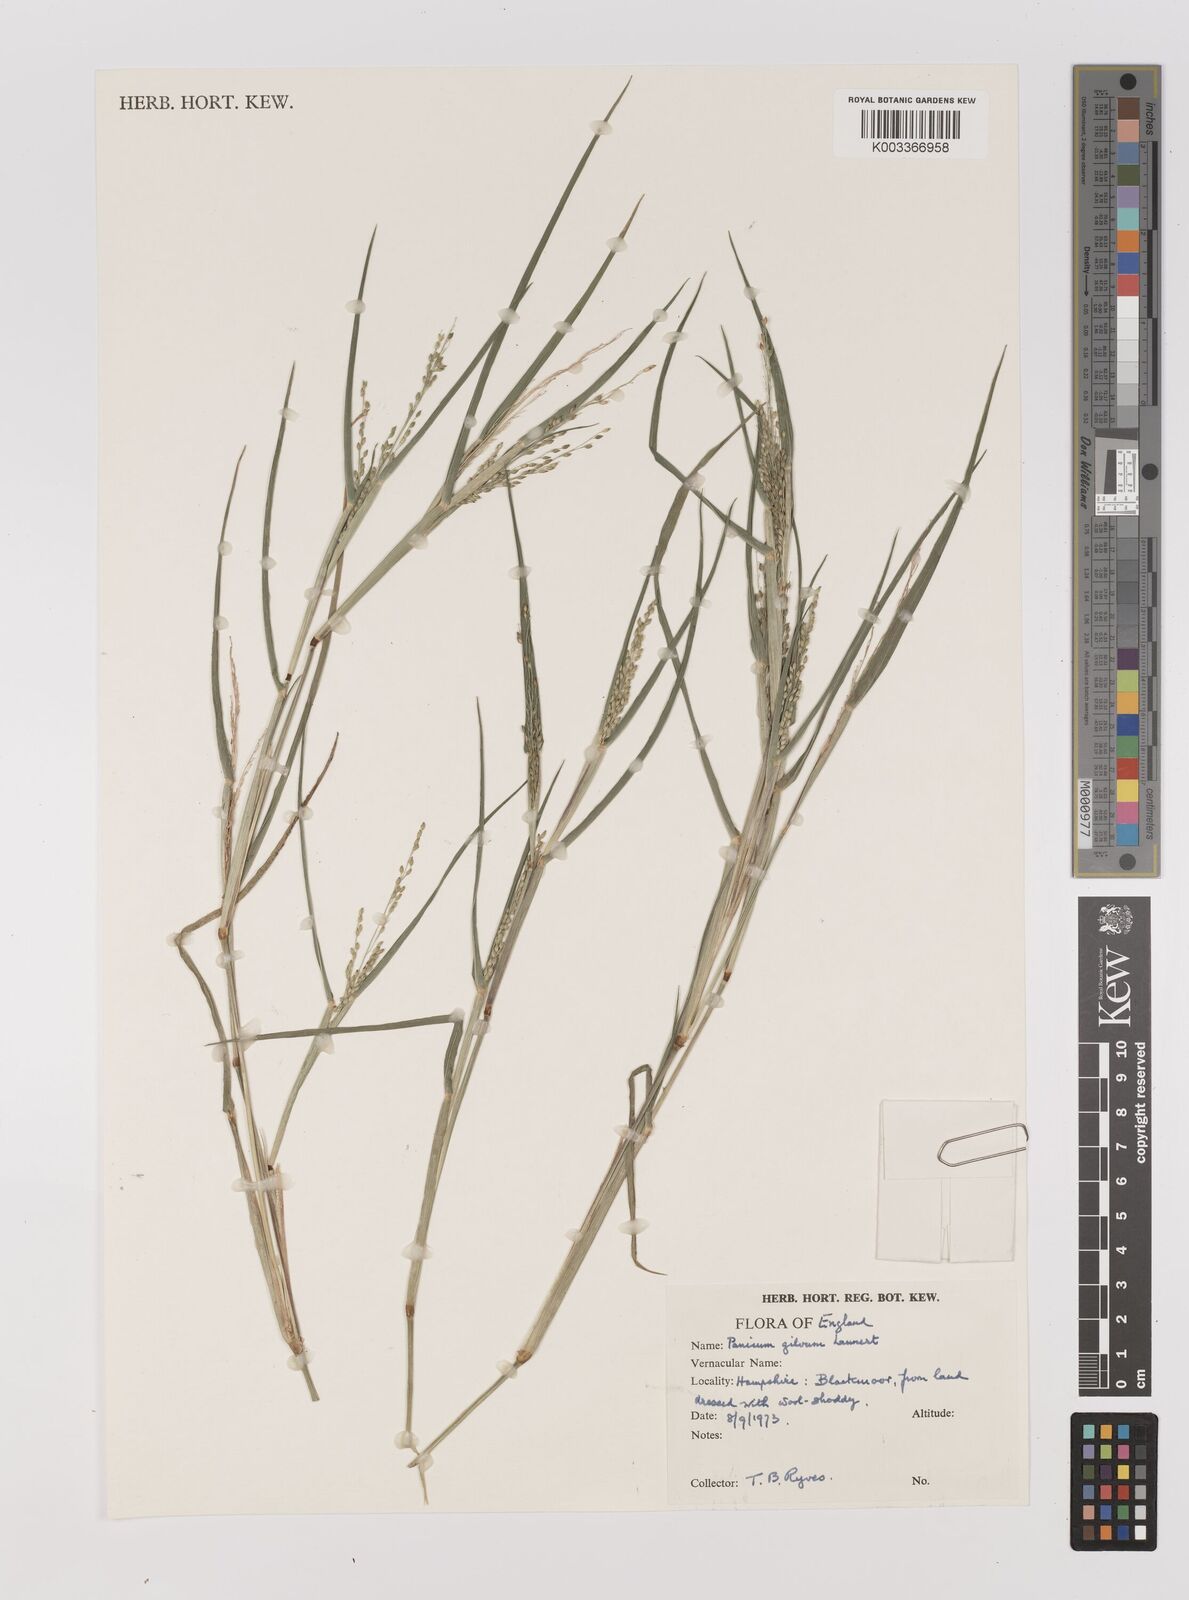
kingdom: Plantae
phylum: Tracheophyta
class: Liliopsida
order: Poales
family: Poaceae
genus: Panicum
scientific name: Panicum gilvum
